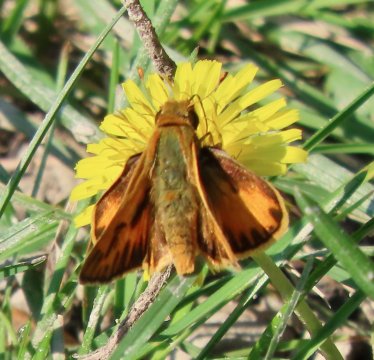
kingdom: Animalia
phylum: Arthropoda
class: Insecta
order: Lepidoptera
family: Hesperiidae
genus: Hylephila
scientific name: Hylephila phyleus
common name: Fiery Skipper
